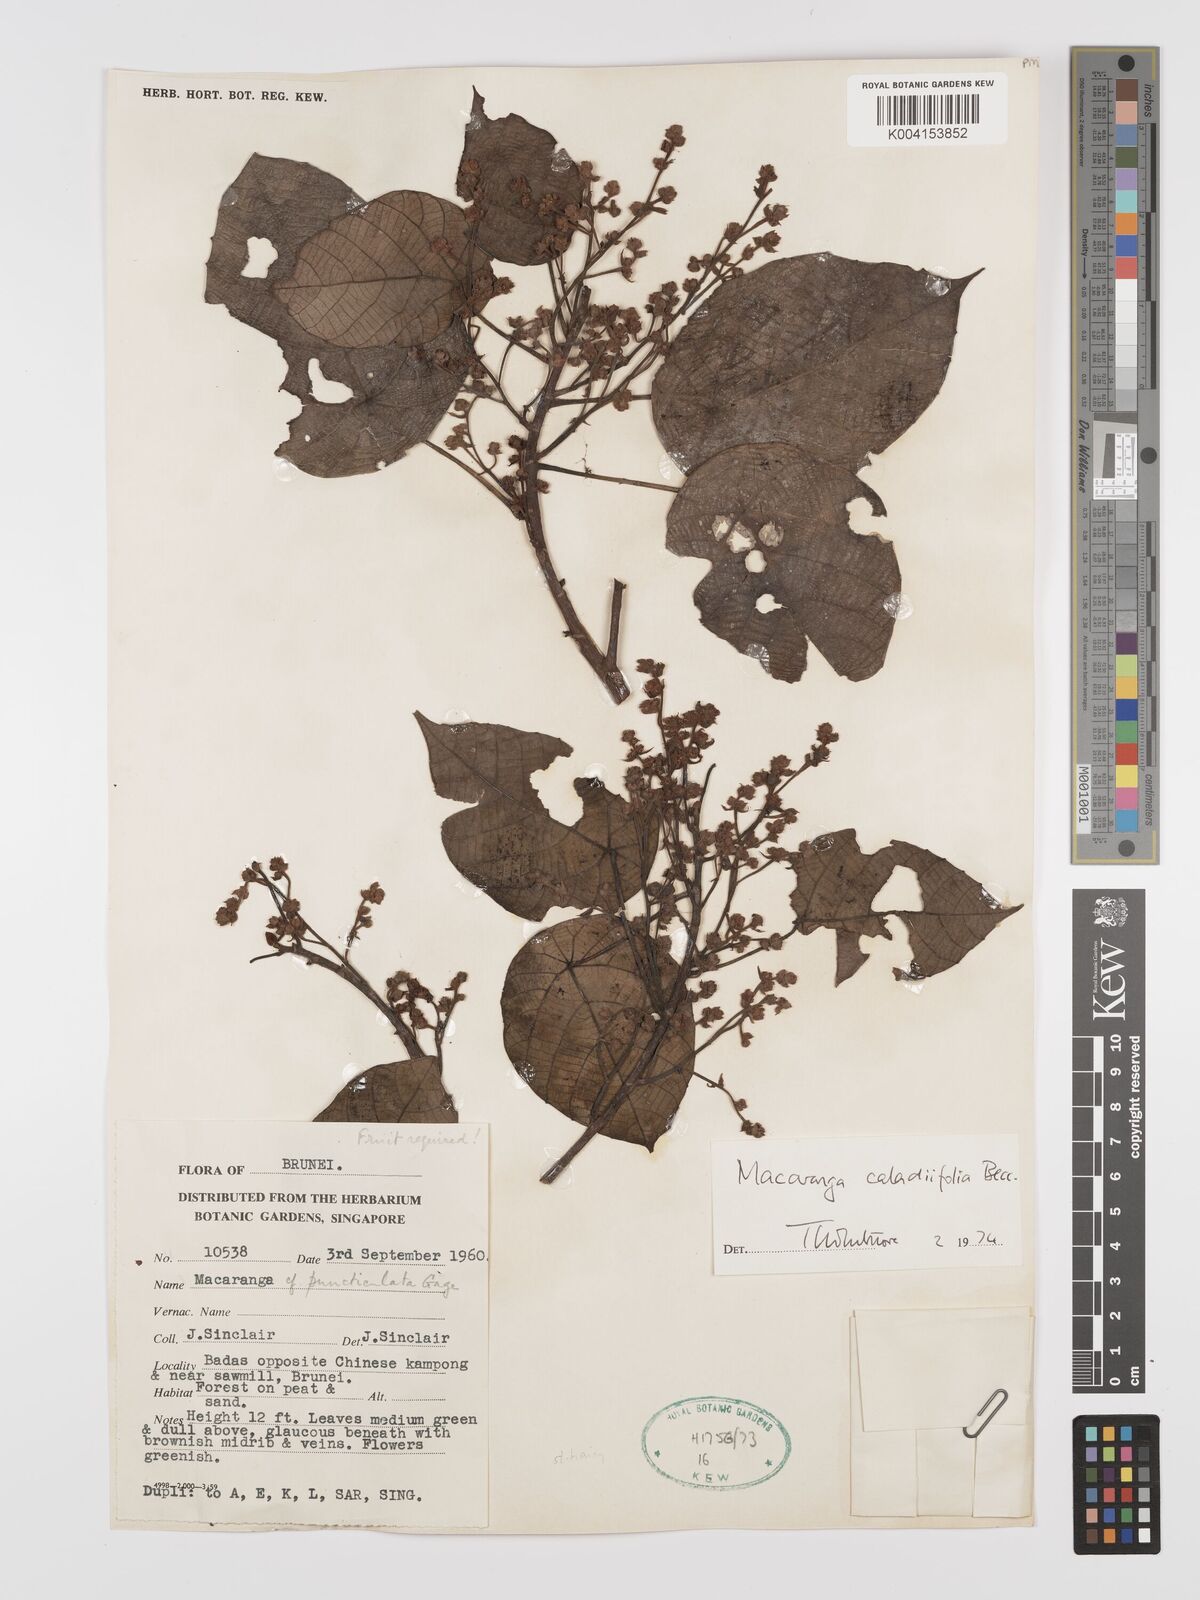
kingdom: Plantae
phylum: Tracheophyta
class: Magnoliopsida
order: Malpighiales
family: Euphorbiaceae
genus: Macaranga
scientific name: Macaranga caladiifolia
